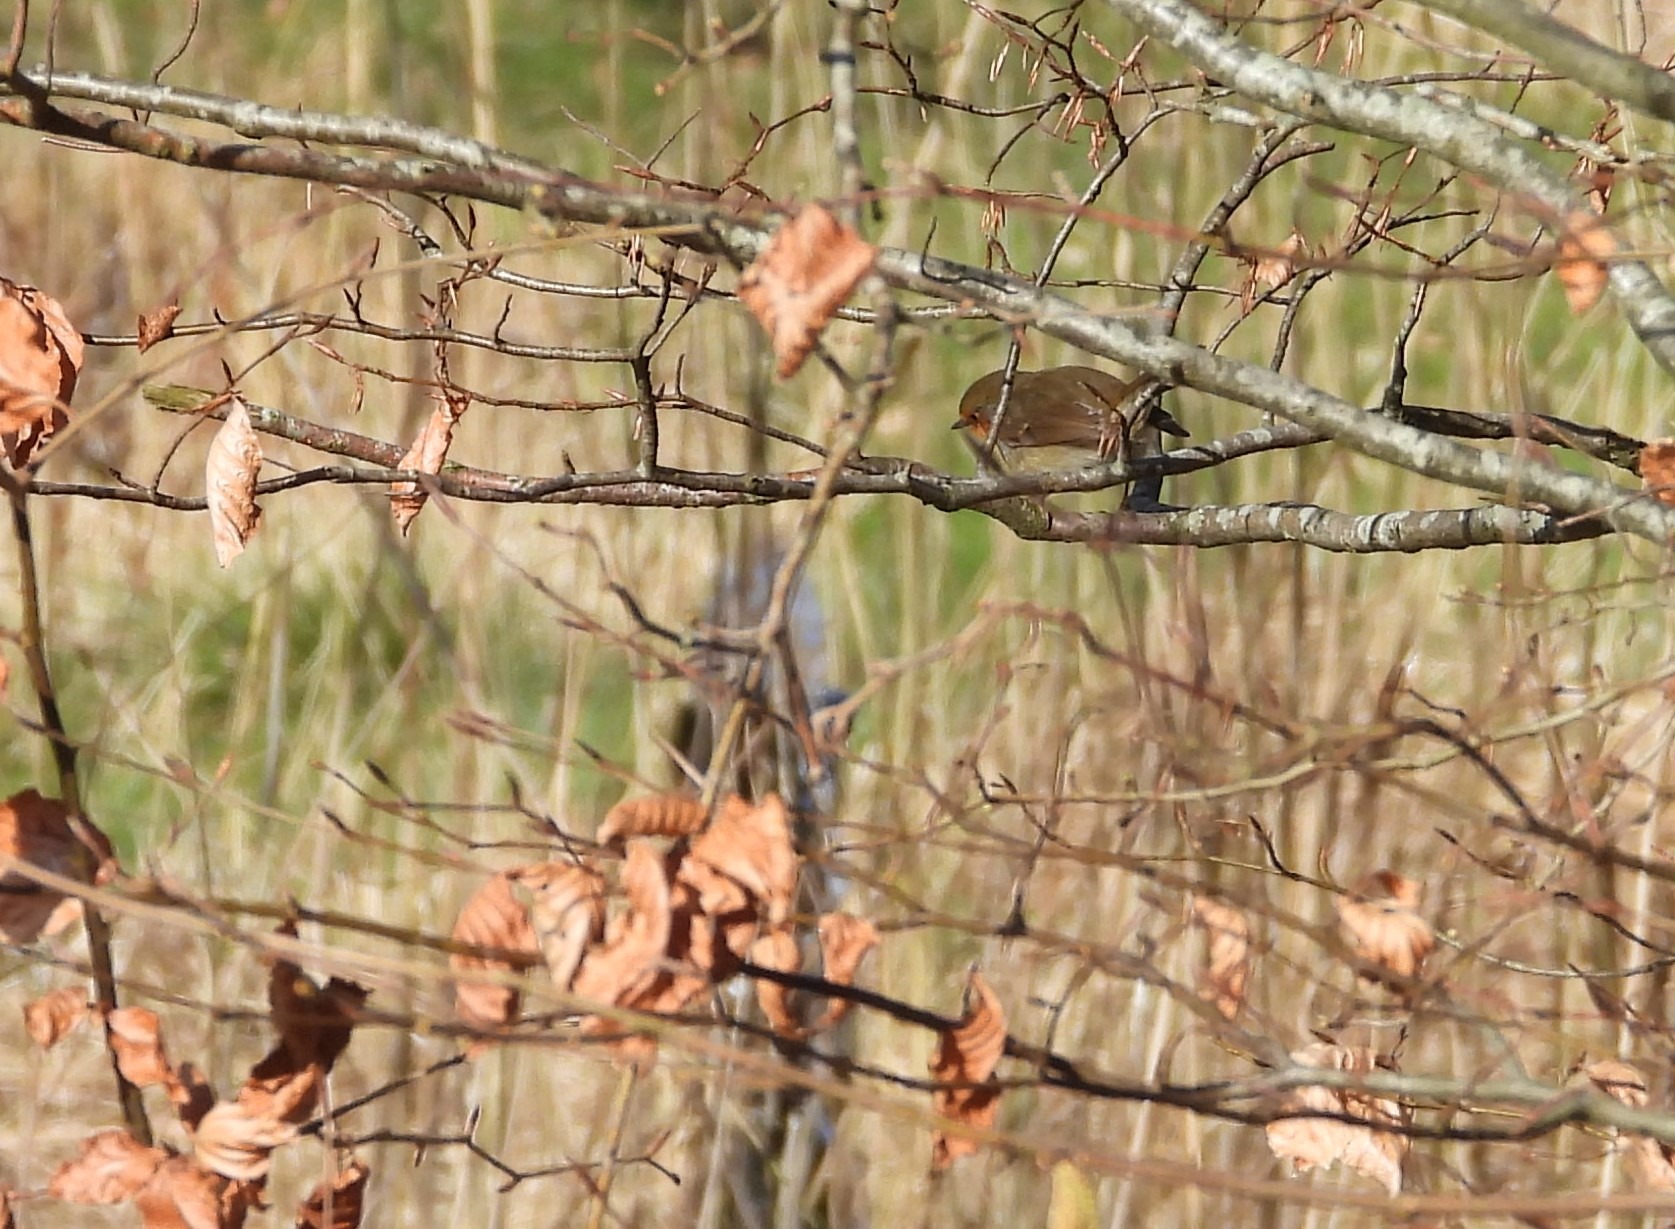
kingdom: Animalia
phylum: Chordata
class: Aves
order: Passeriformes
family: Muscicapidae
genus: Erithacus
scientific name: Erithacus rubecula
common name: Rødhals/rødkælk
